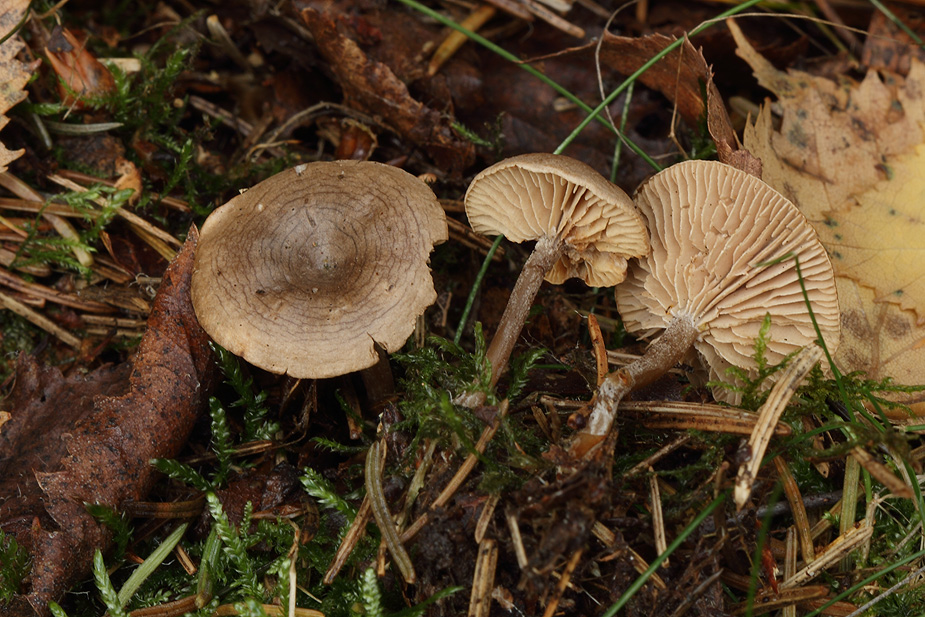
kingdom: Fungi
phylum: Basidiomycota
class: Agaricomycetes
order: Agaricales
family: Entolomataceae
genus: Clitopilus
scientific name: Clitopilus caelatus
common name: gråbrun troldhat
